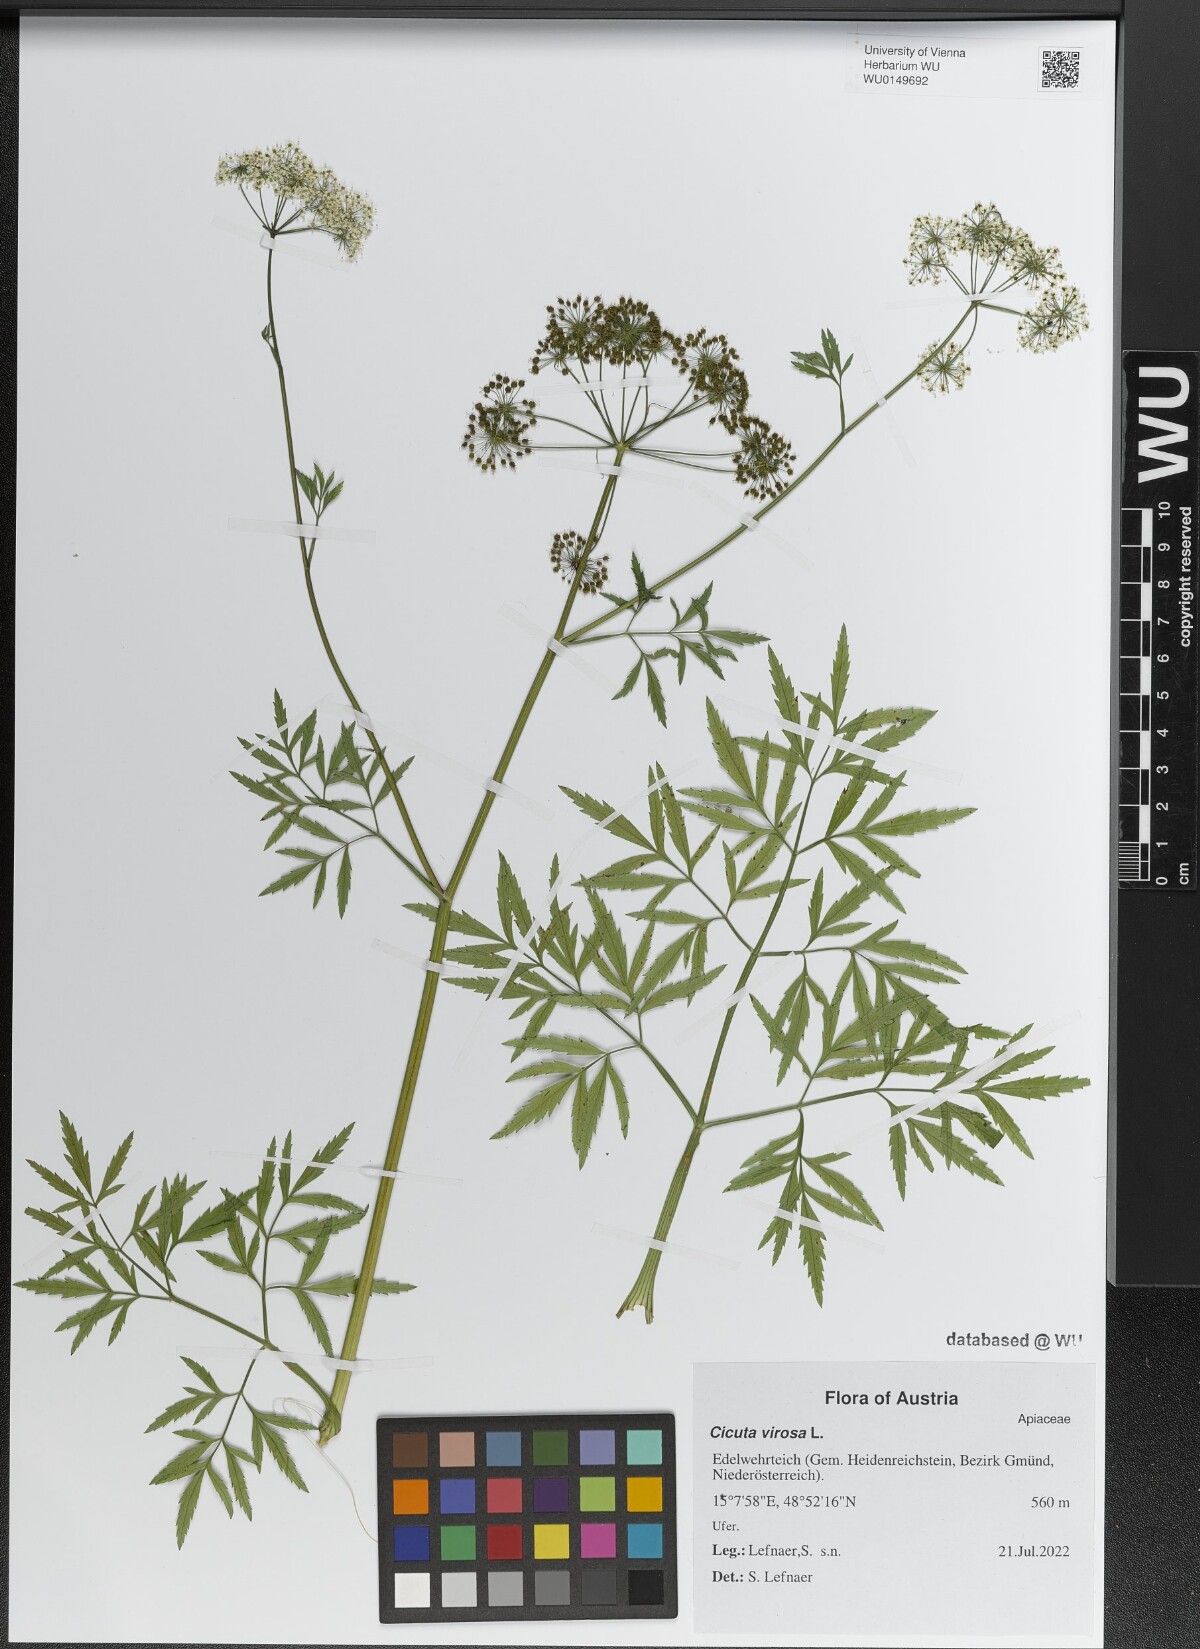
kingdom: Plantae
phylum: Tracheophyta
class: Magnoliopsida
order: Apiales
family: Apiaceae
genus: Cicuta
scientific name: Cicuta virosa
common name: Cowbane
